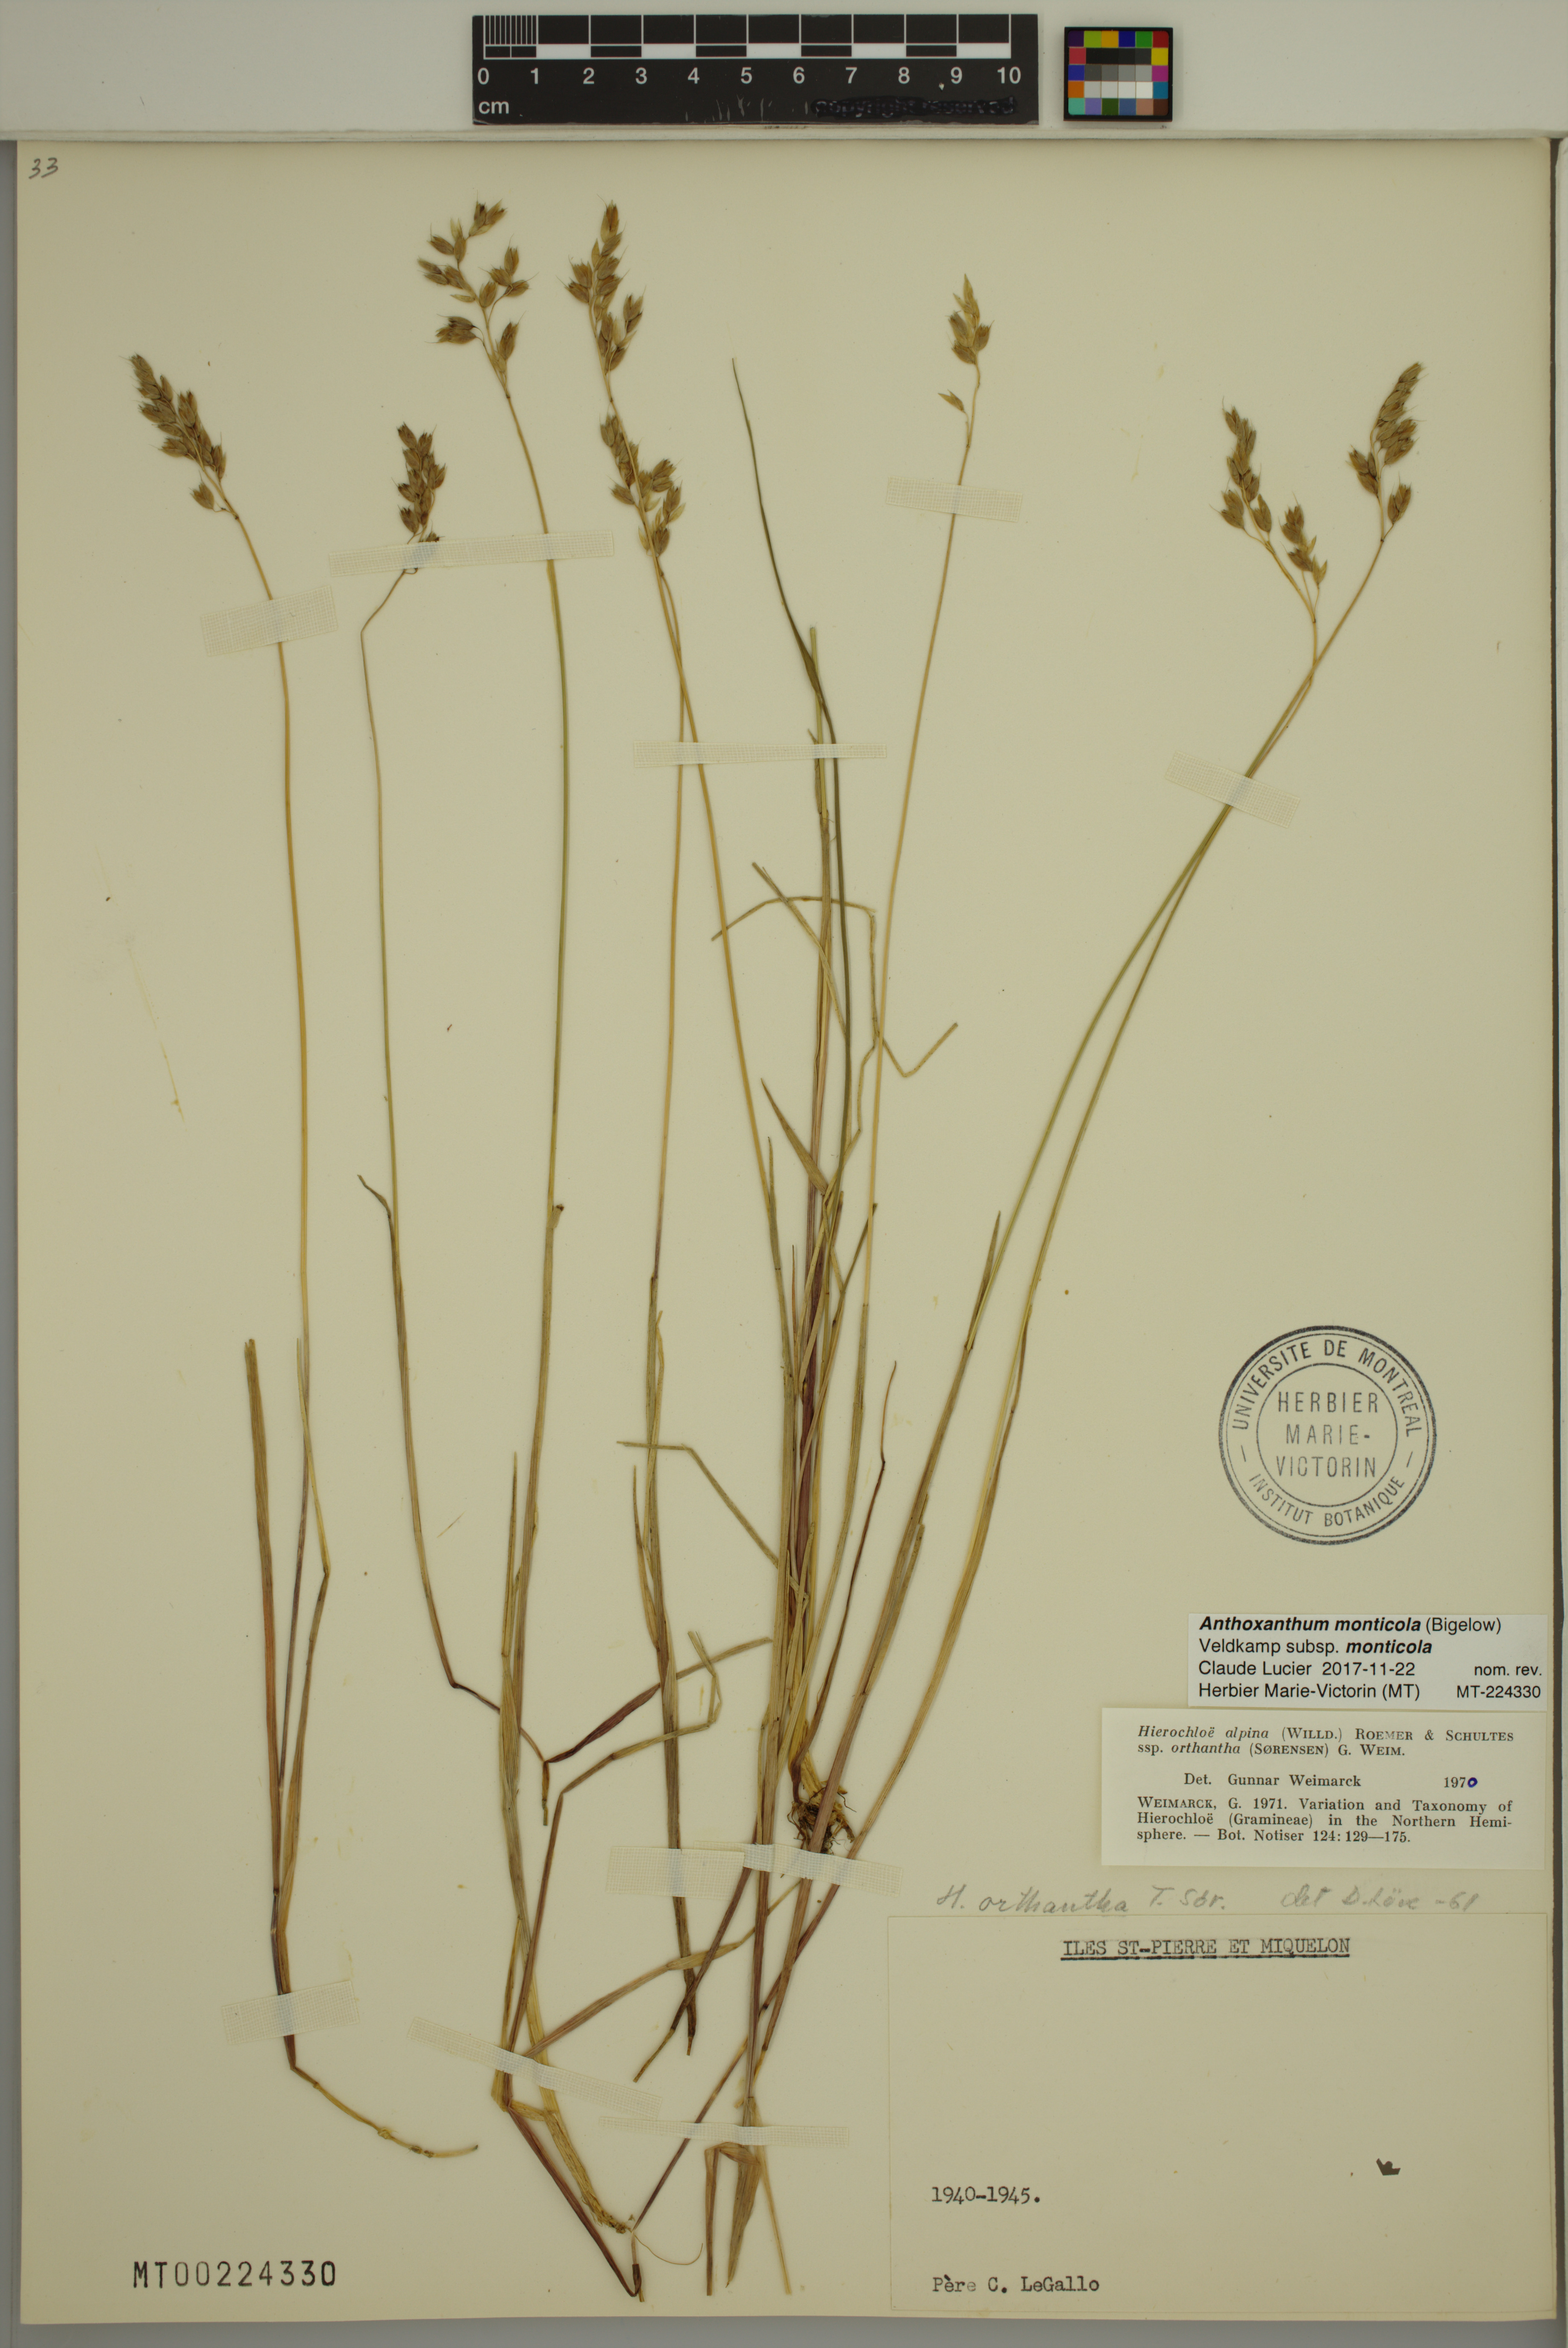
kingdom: Plantae
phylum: Tracheophyta
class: Liliopsida
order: Poales
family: Poaceae
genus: Anthoxanthum
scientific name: Anthoxanthum monticola
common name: Alpine sweetgrass
